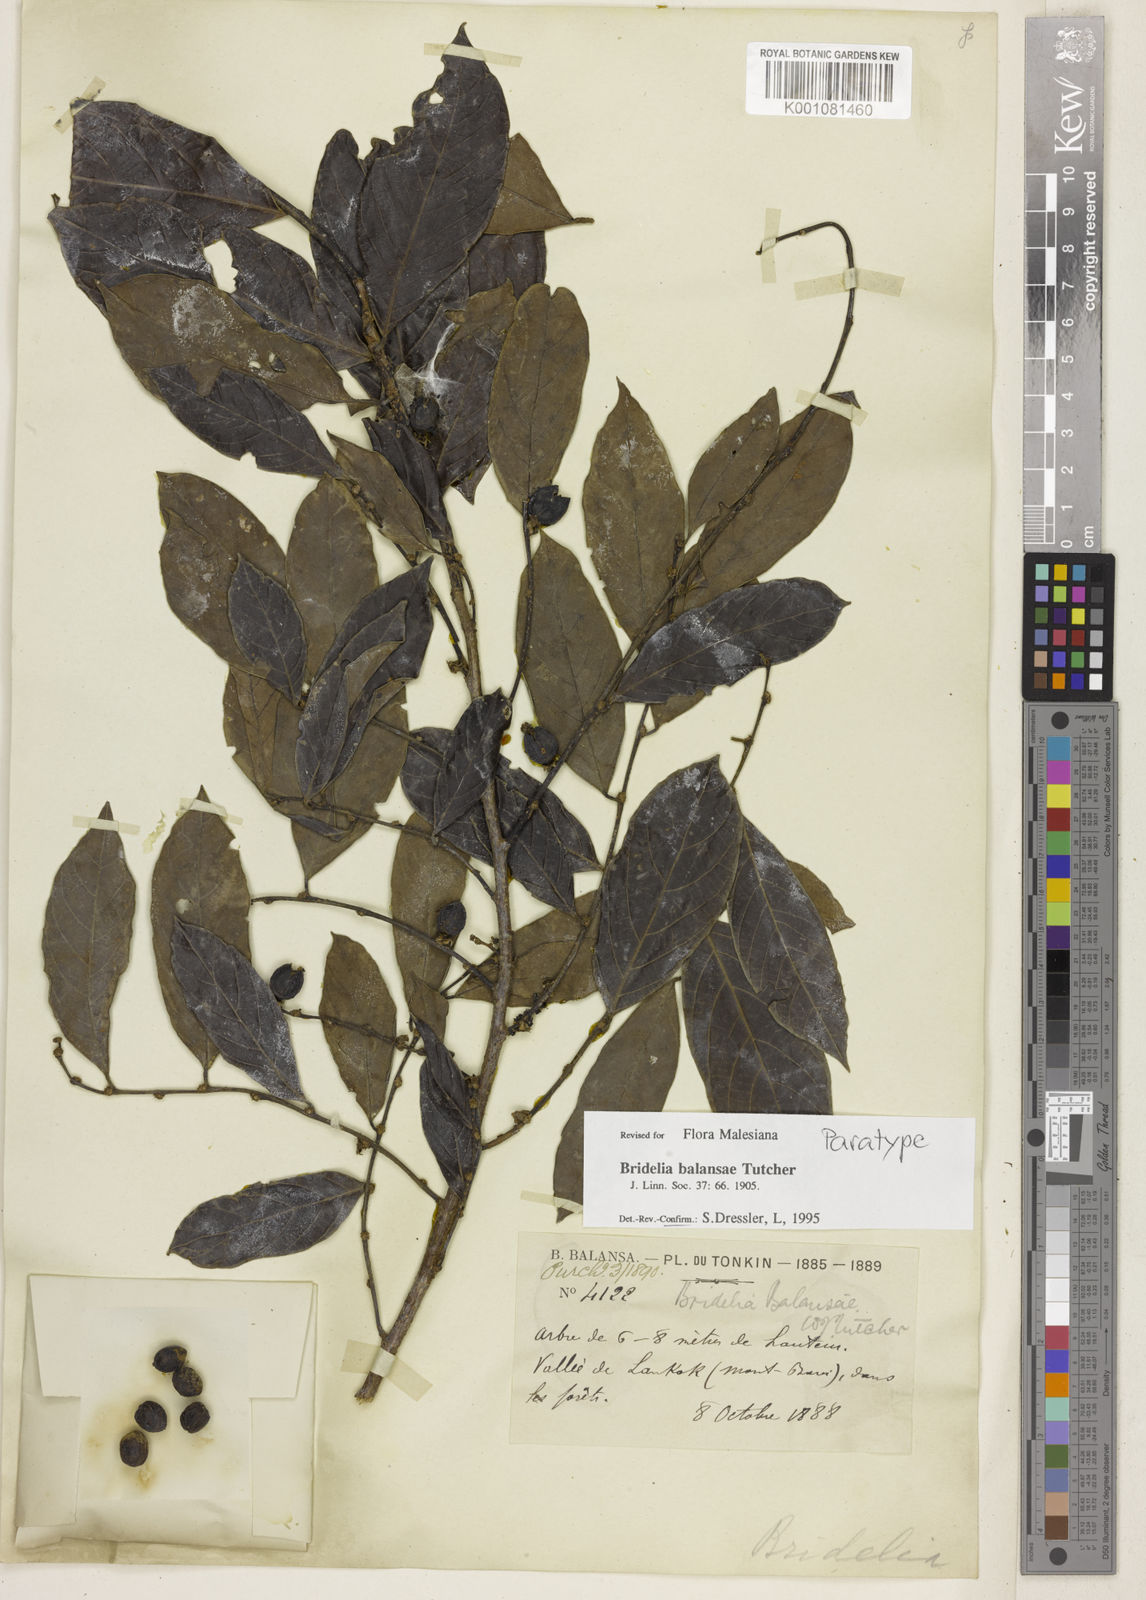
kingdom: Plantae
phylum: Tracheophyta
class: Magnoliopsida
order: Malpighiales
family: Phyllanthaceae
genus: Bridelia
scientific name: Bridelia balansae
